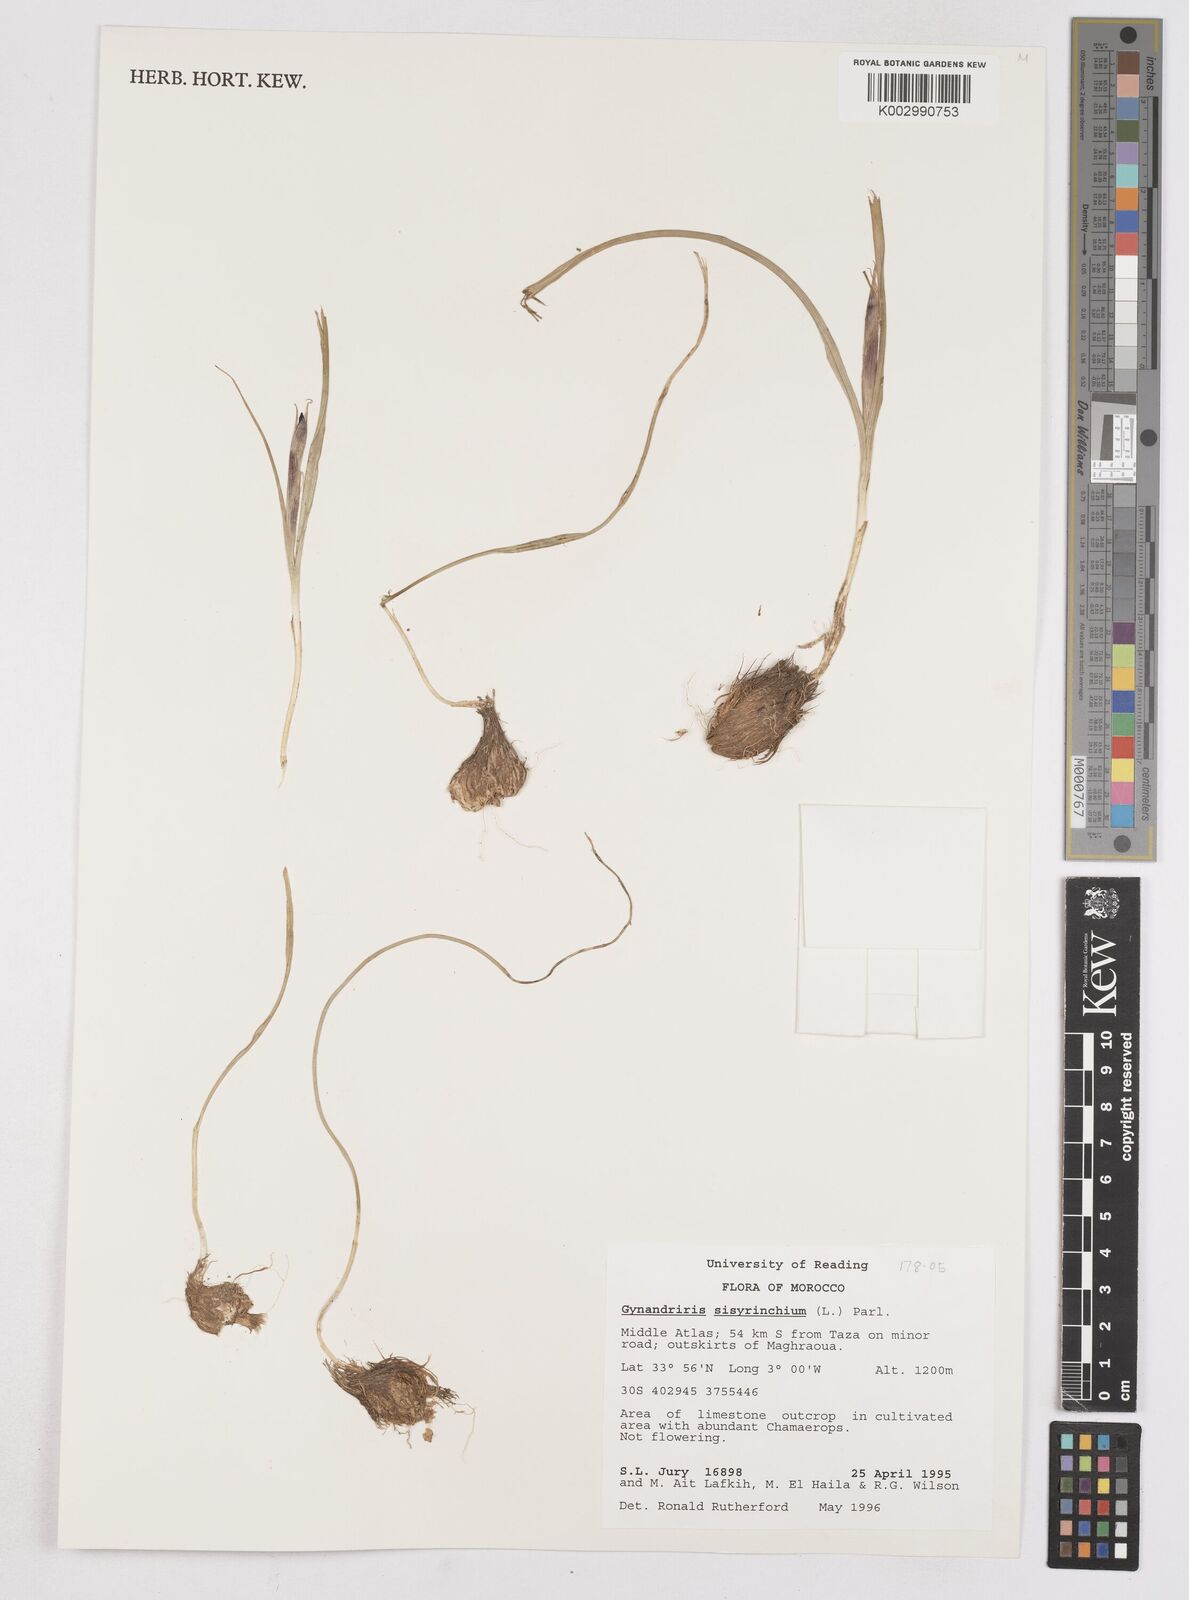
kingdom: Plantae
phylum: Tracheophyta
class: Liliopsida
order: Asparagales
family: Iridaceae
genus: Moraea
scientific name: Moraea sisyrinchium
